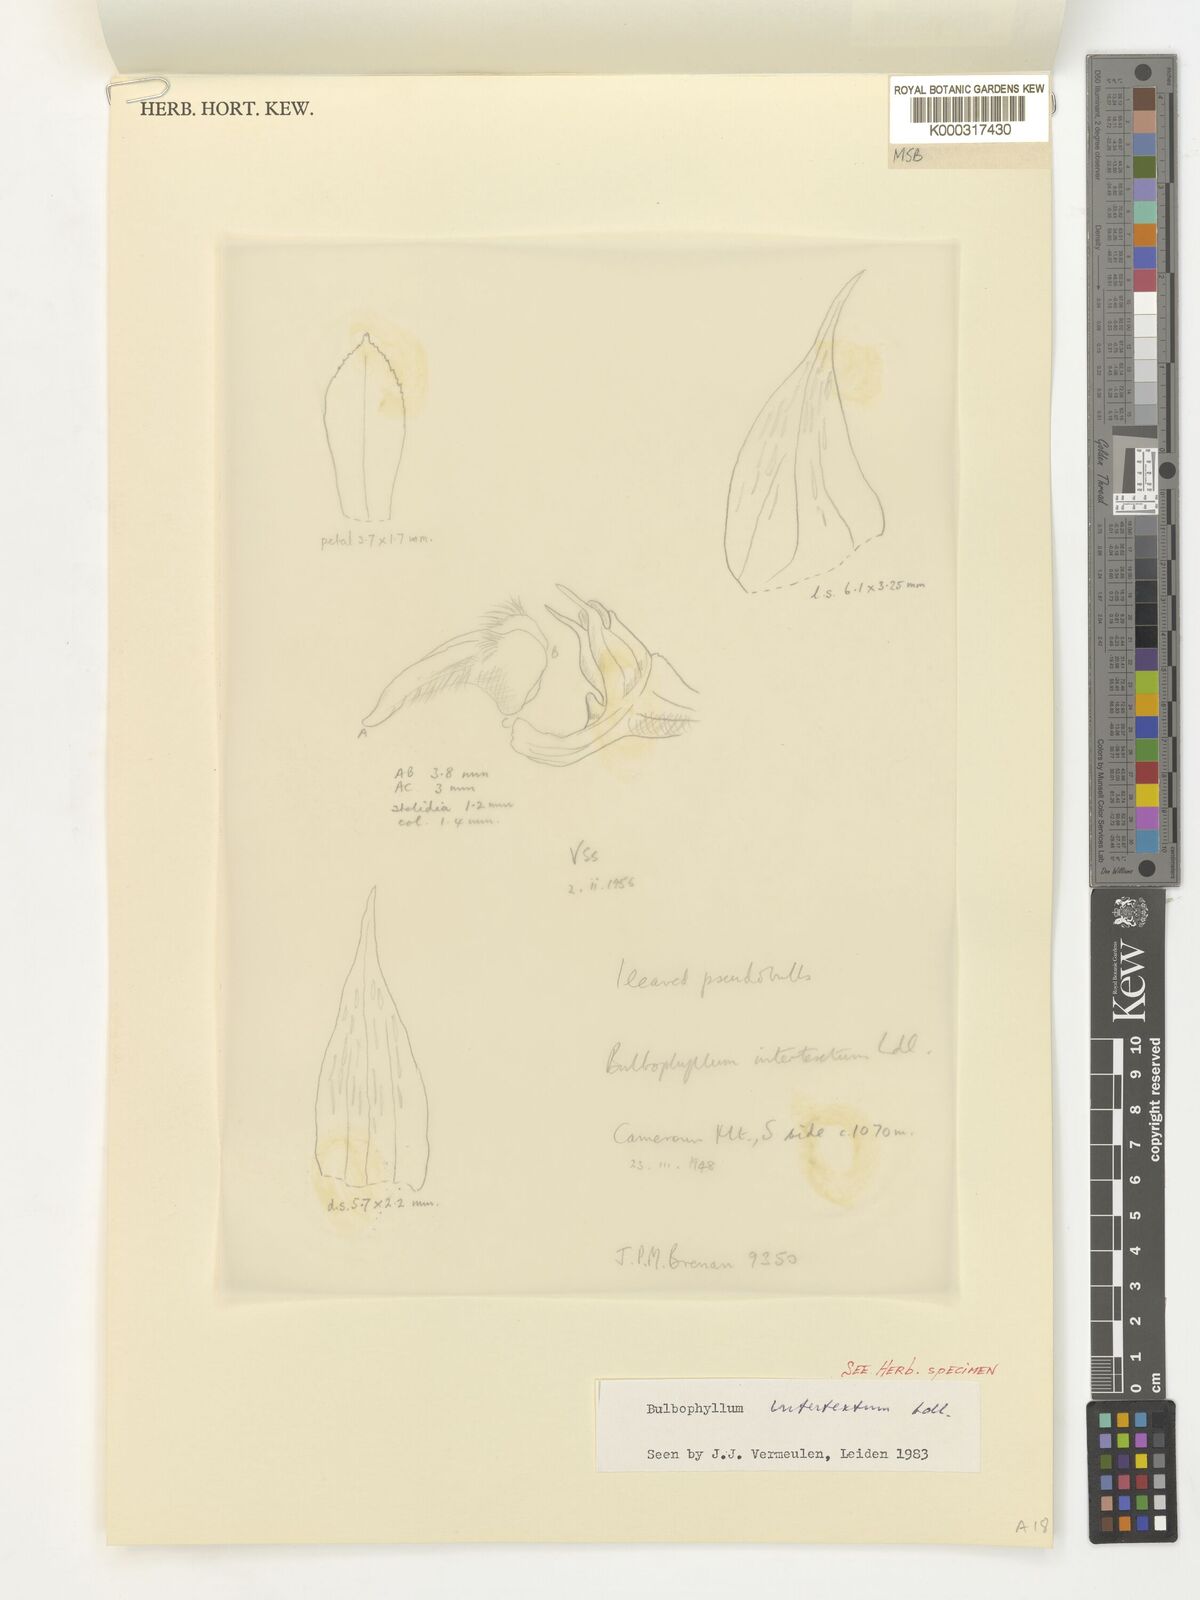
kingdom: Plantae
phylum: Tracheophyta
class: Liliopsida
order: Asparagales
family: Orchidaceae
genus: Bulbophyllum
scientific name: Bulbophyllum intertextum
